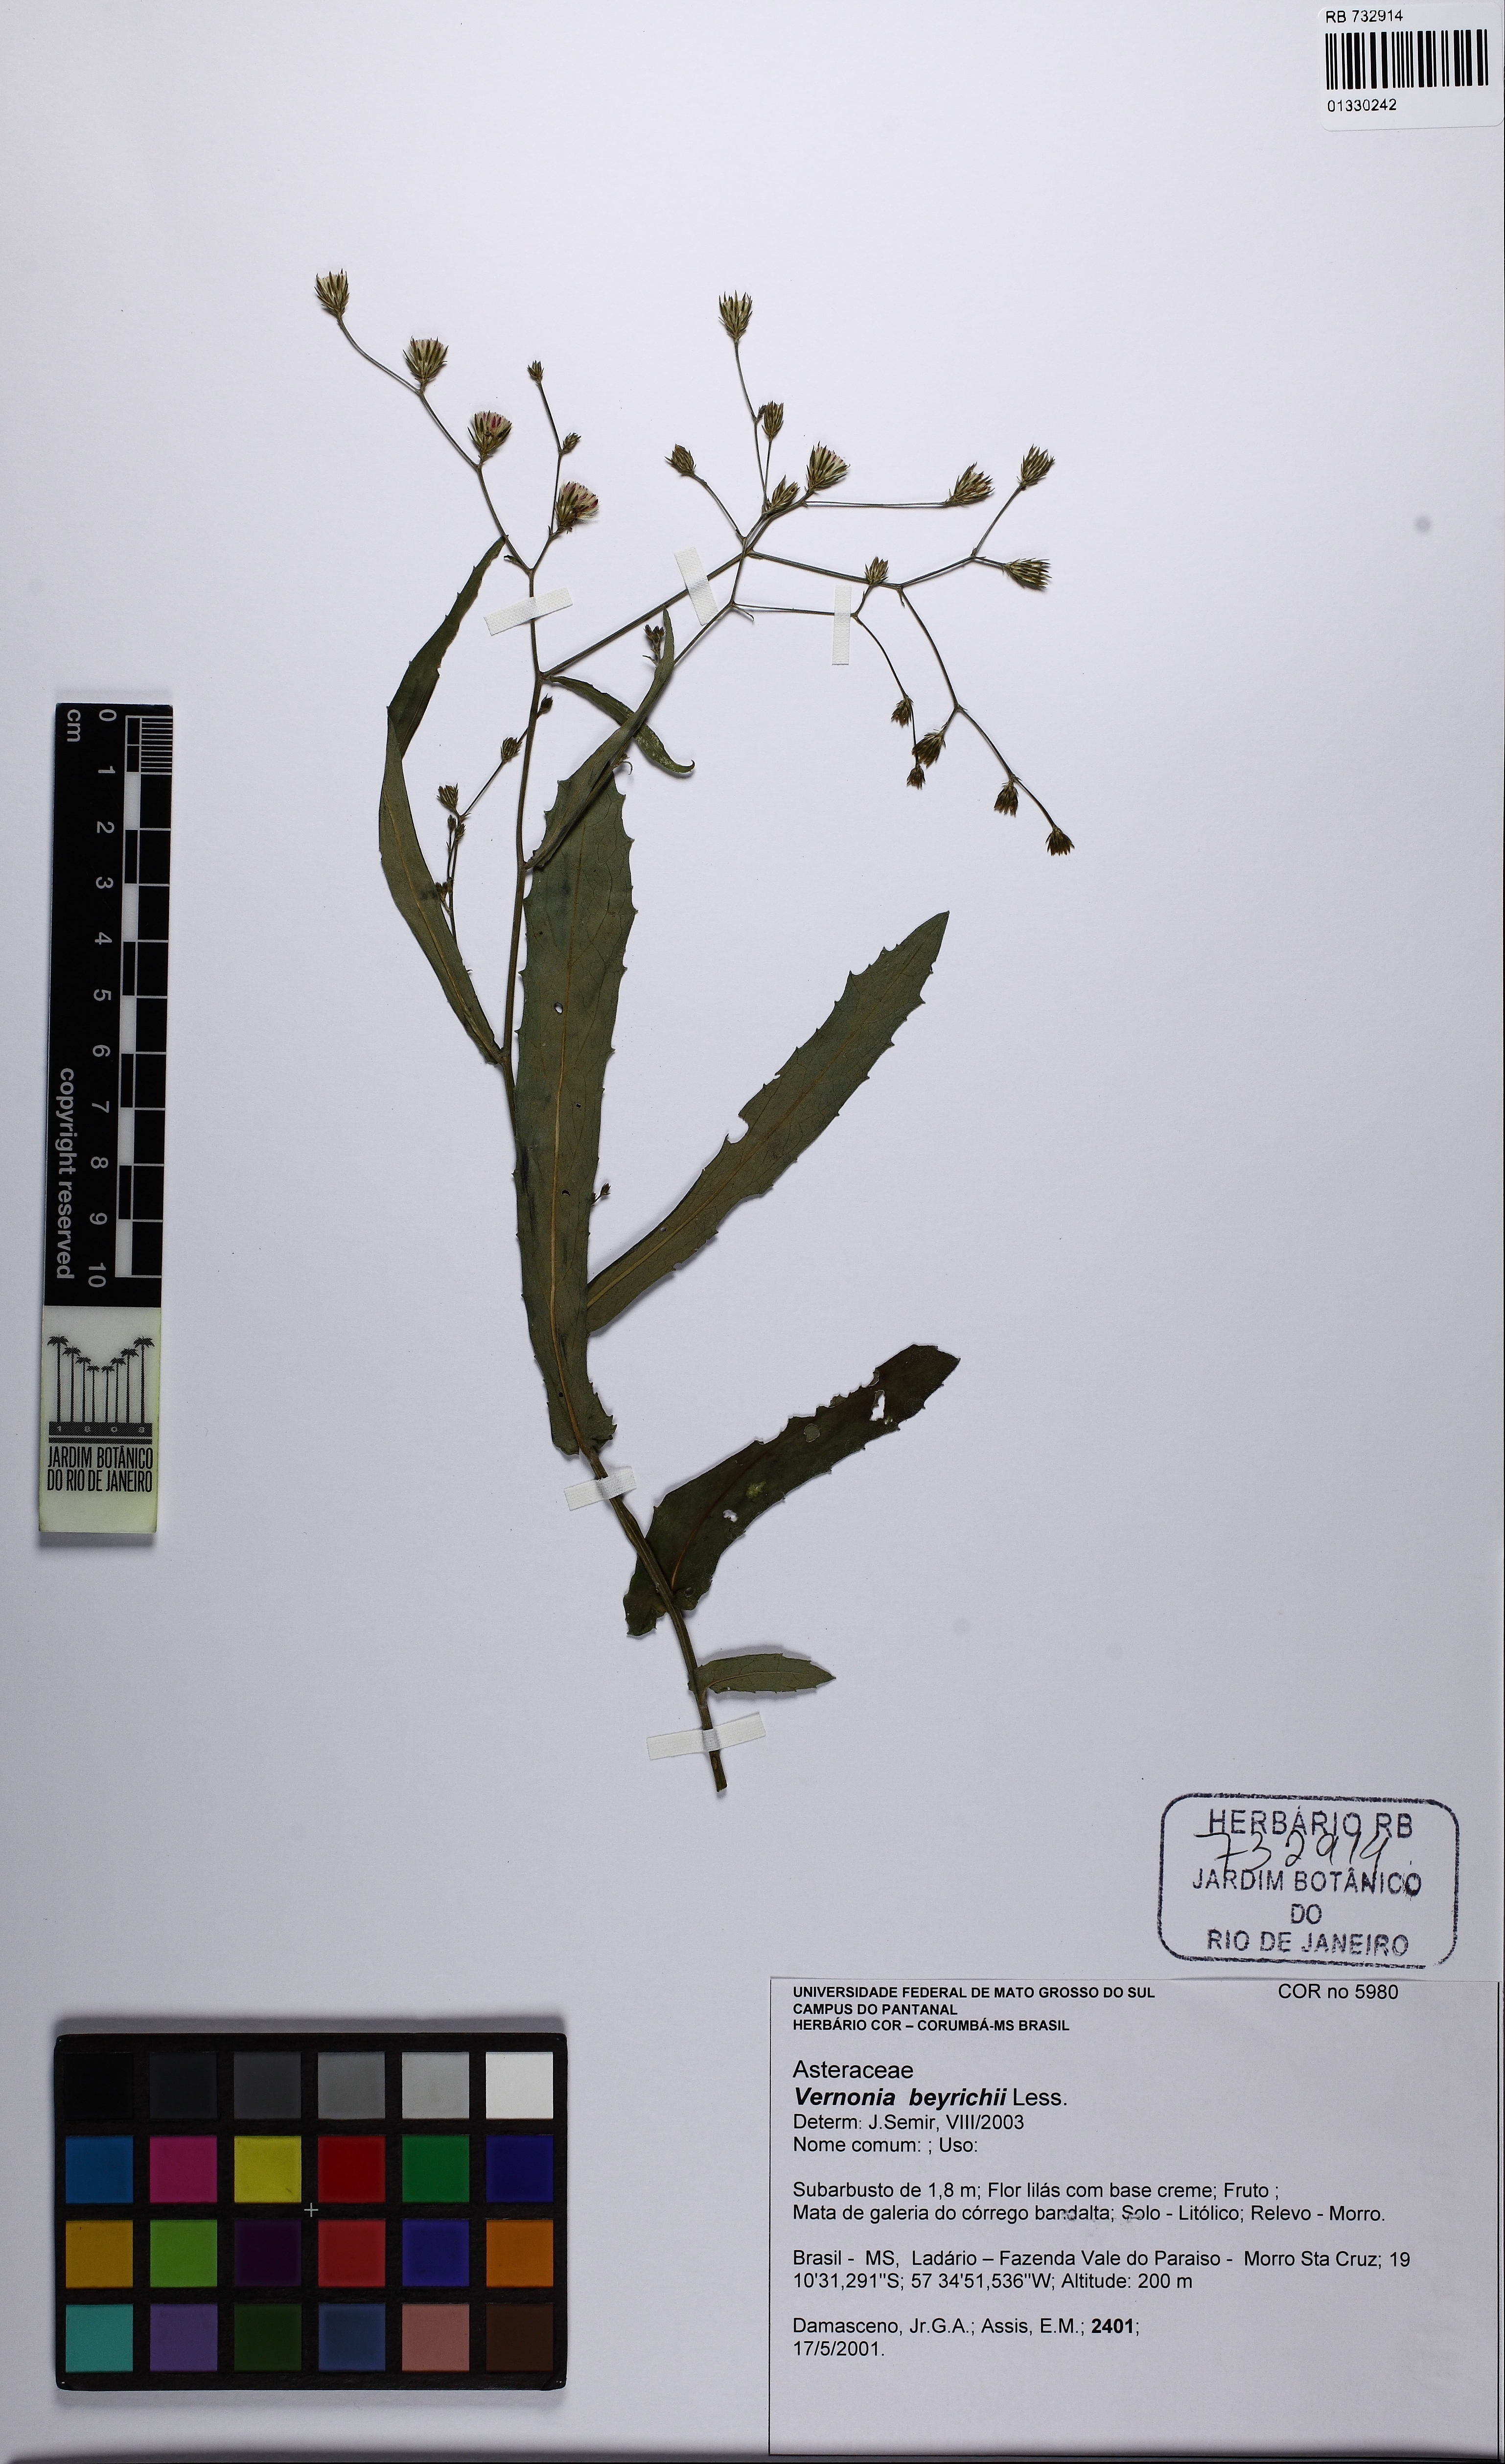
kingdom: Plantae
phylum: Tracheophyta
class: Magnoliopsida
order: Asterales
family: Asteraceae
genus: Vernonanthura
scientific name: Vernonanthura beyrichii
